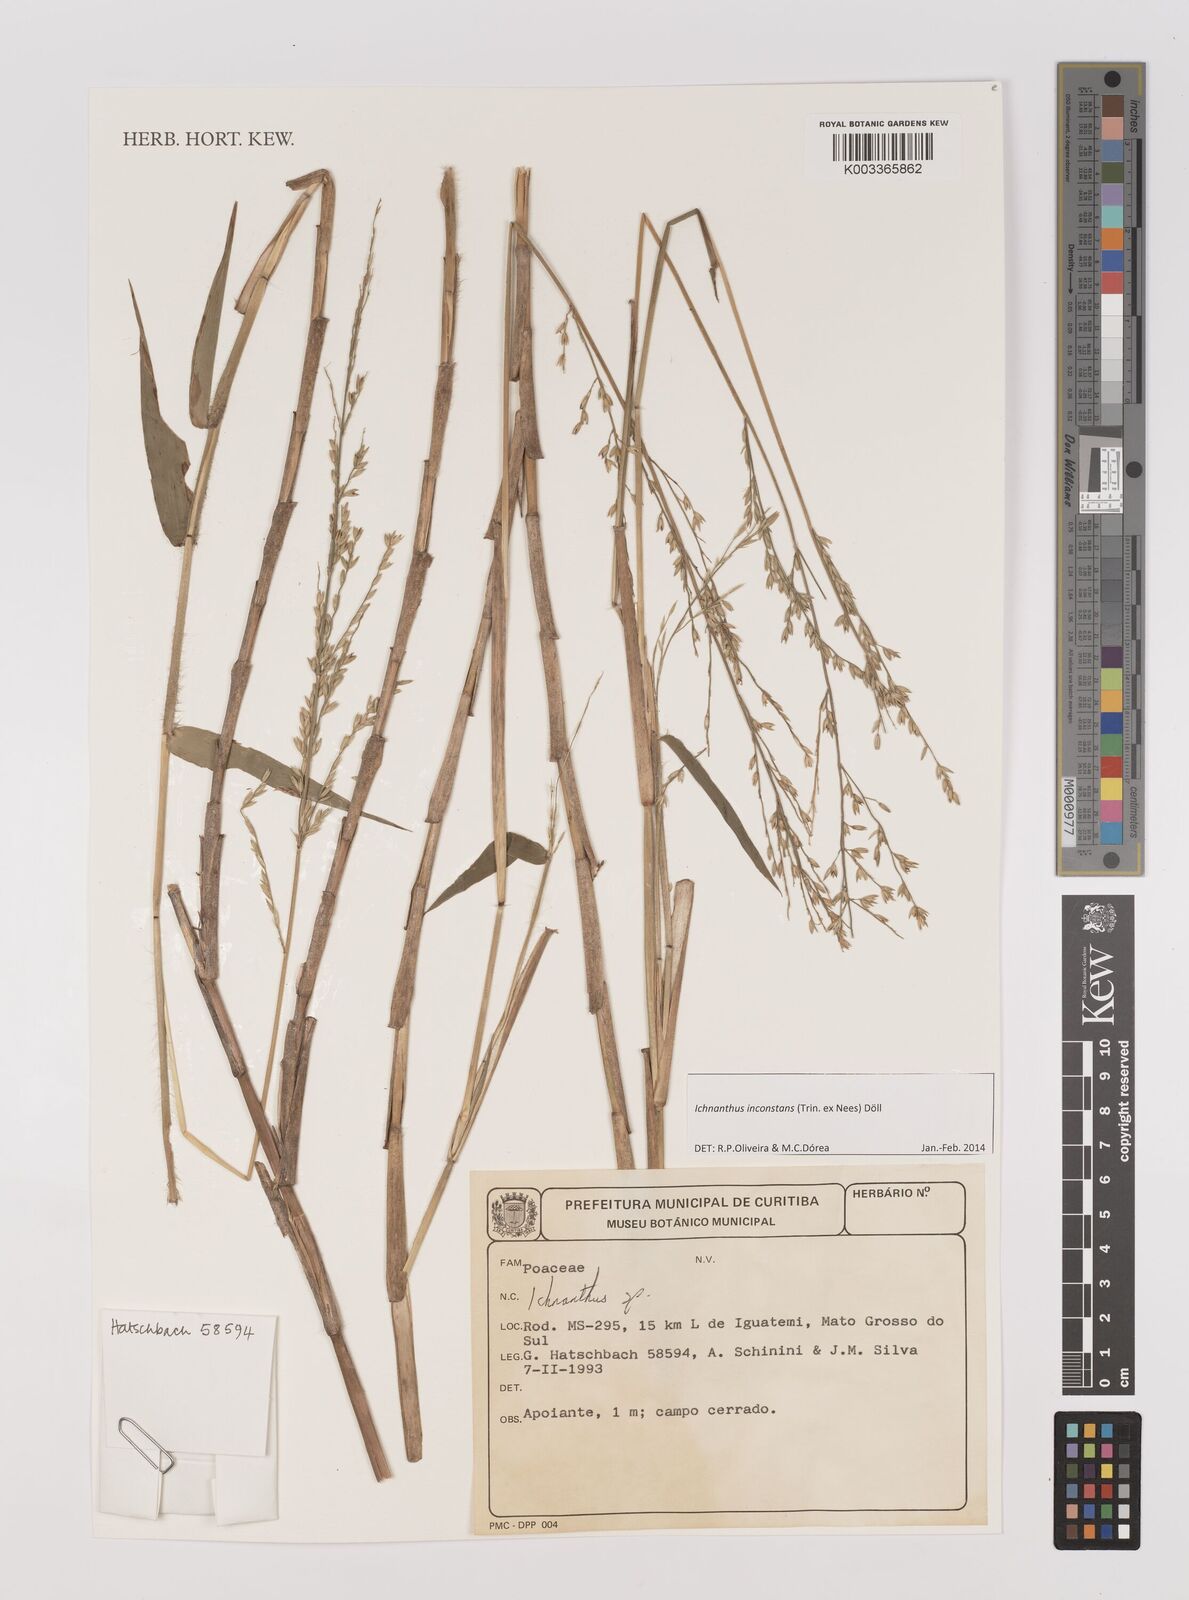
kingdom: Plantae
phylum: Tracheophyta
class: Liliopsida
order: Poales
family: Poaceae
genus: Ichnanthus
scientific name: Ichnanthus inconstans
